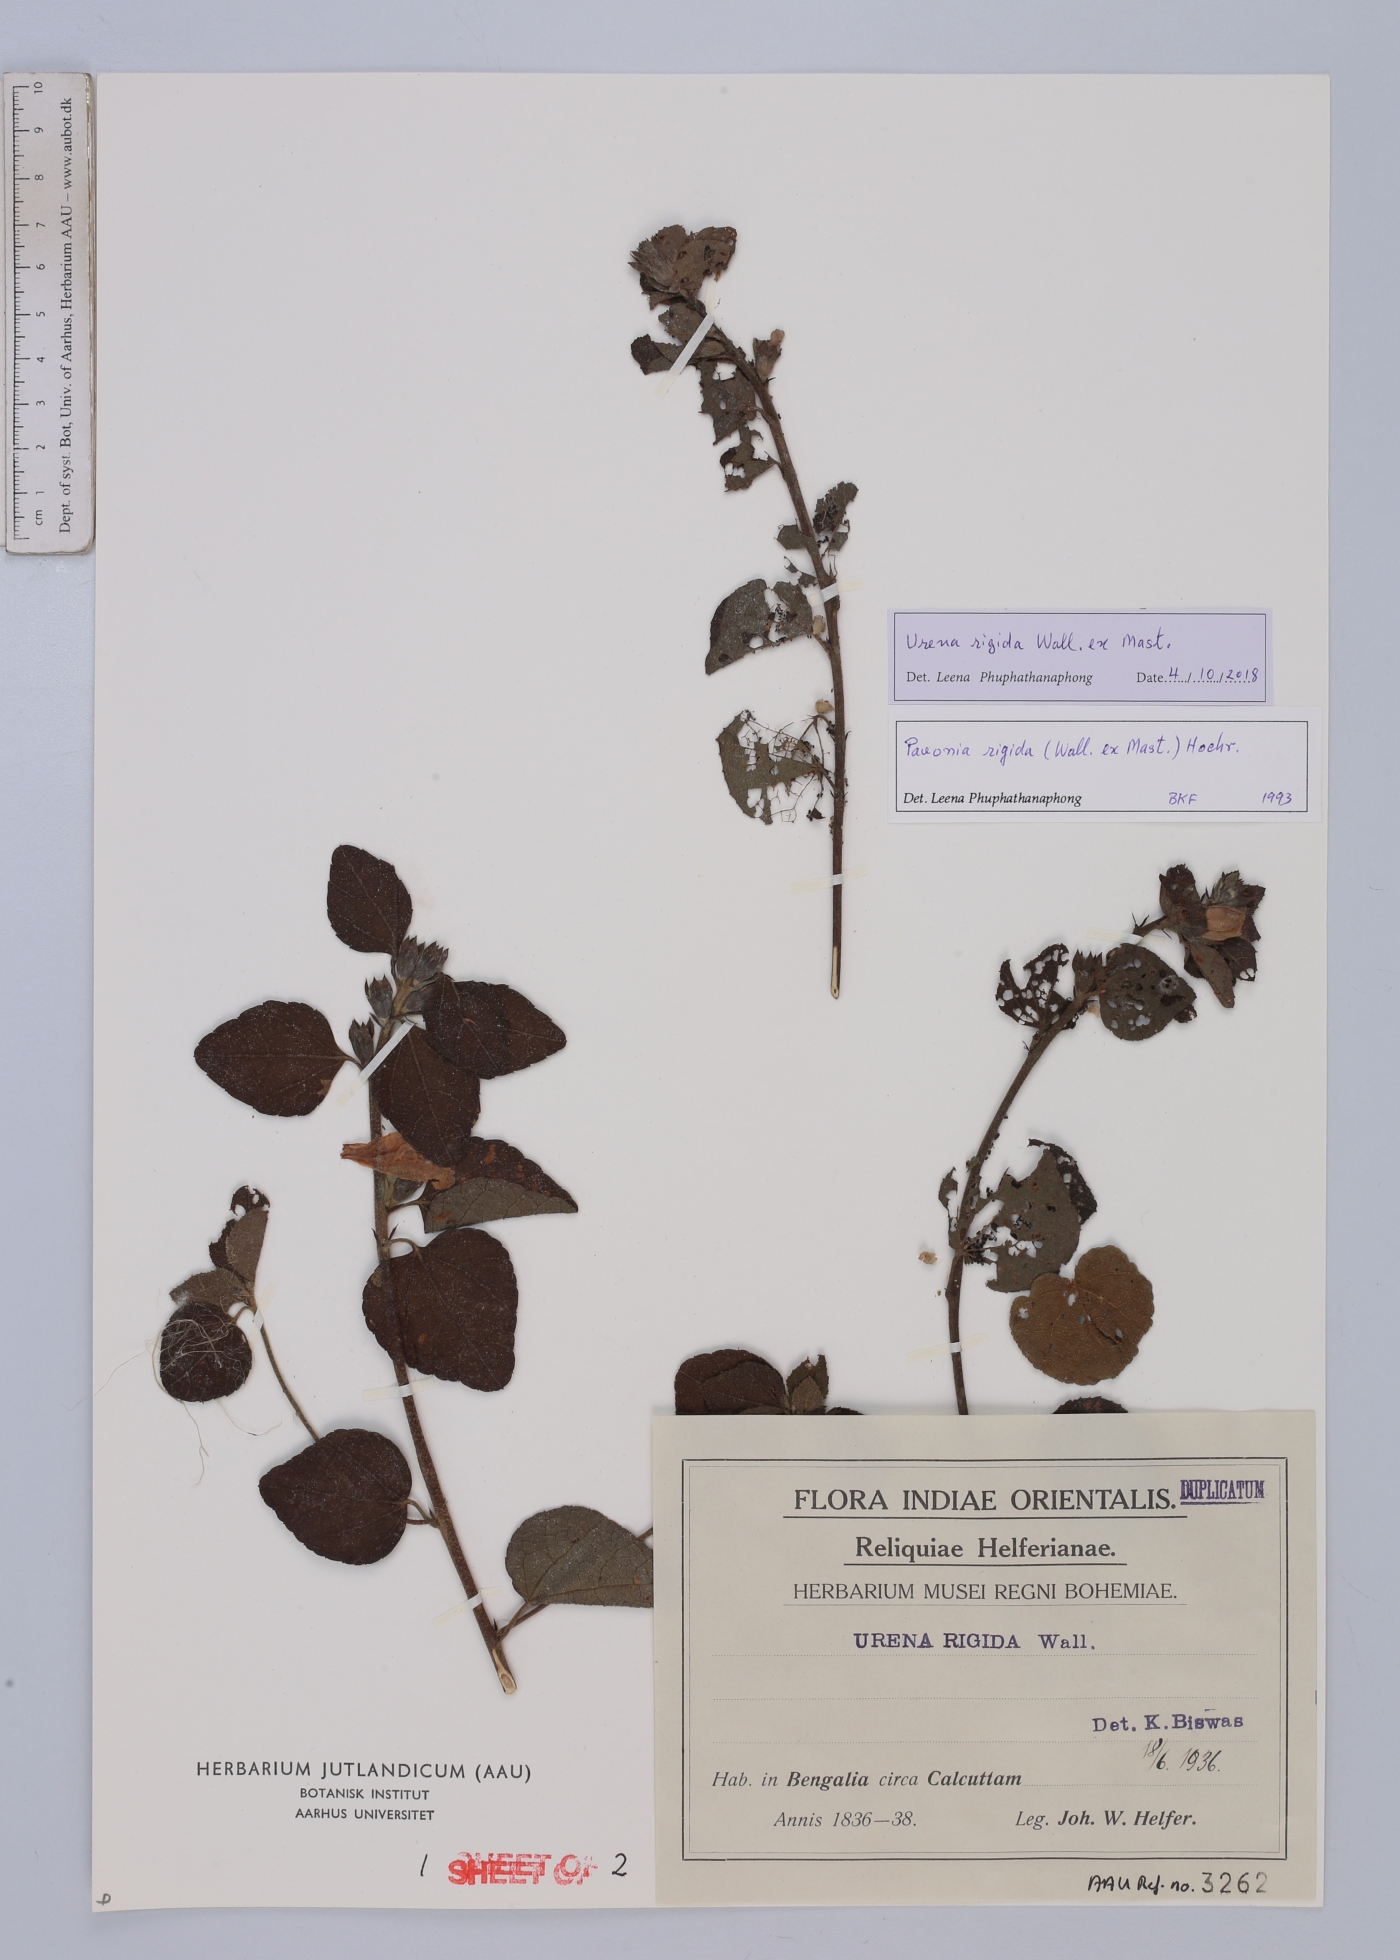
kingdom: Plantae
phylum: Tracheophyta
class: Magnoliopsida
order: Malvales
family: Malvaceae
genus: Urena
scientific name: Urena repanda
